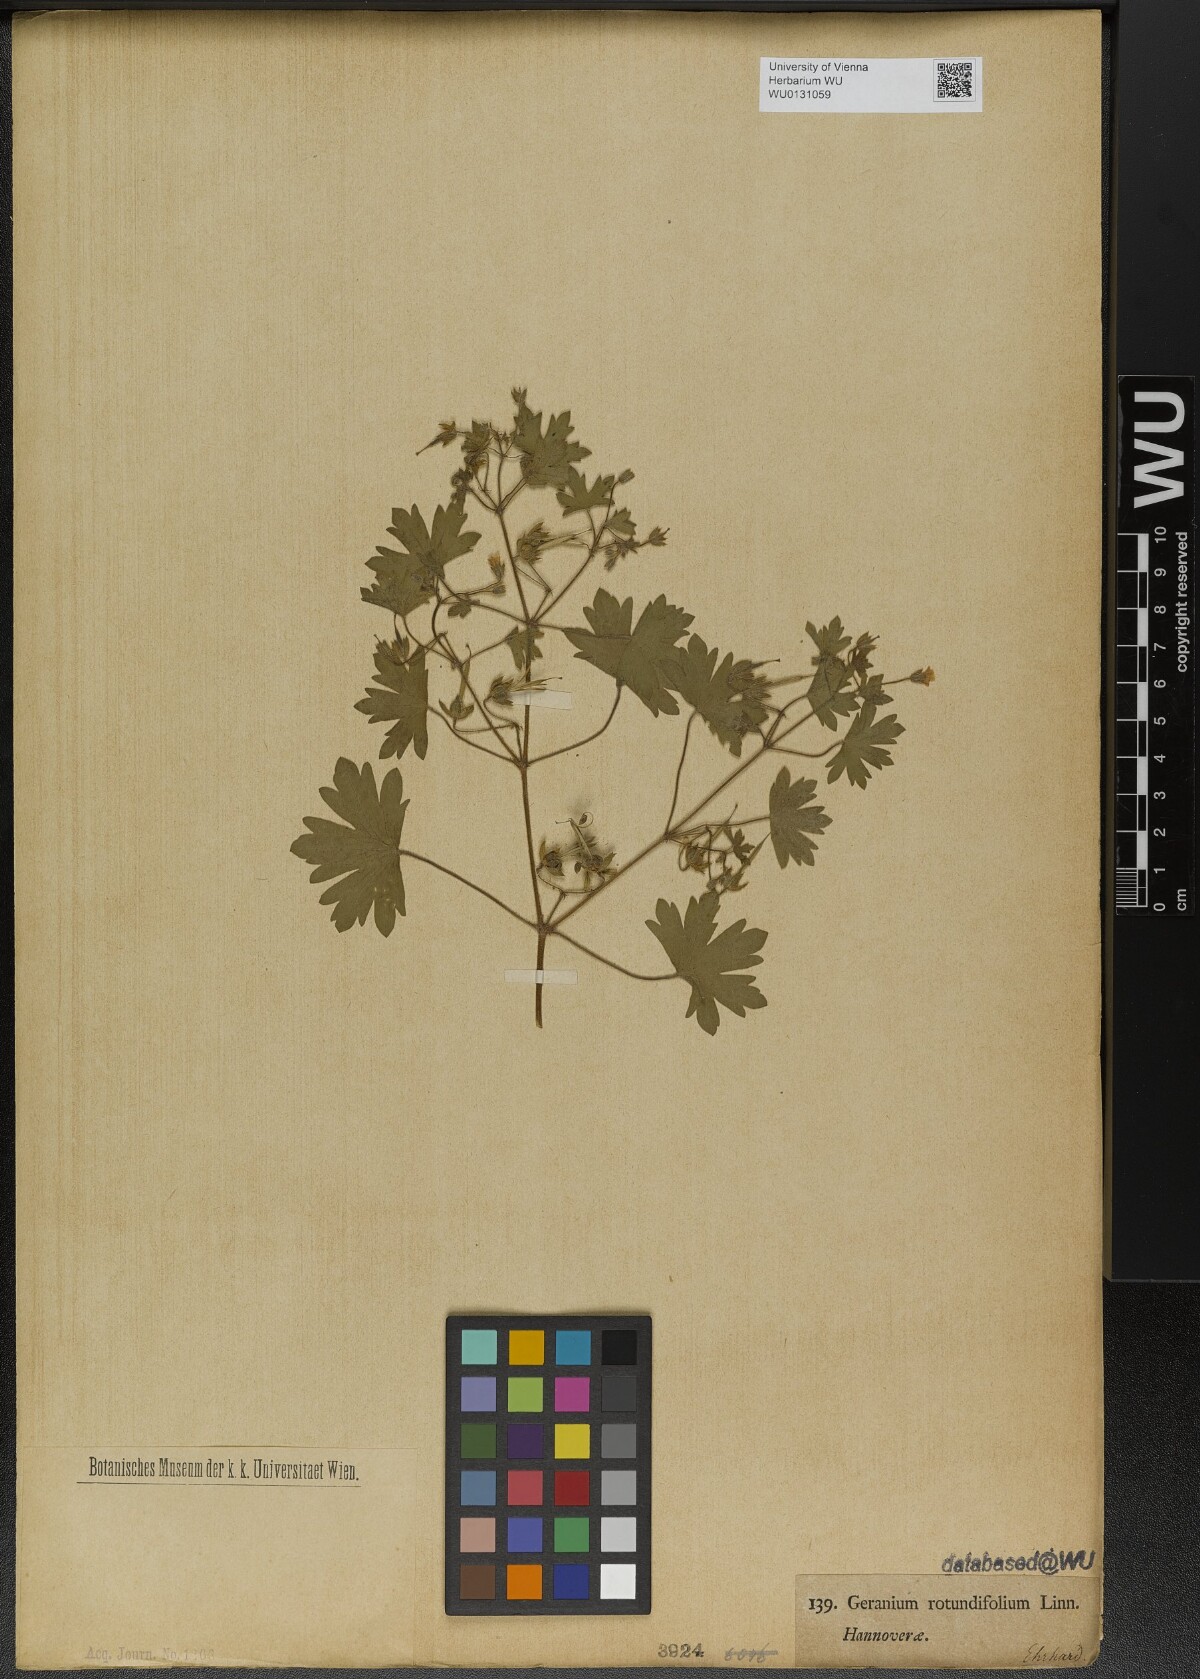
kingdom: Plantae
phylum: Tracheophyta
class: Magnoliopsida
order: Geraniales
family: Geraniaceae
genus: Geranium
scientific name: Geranium rotundifolium
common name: Round-leaved crane's-bill
